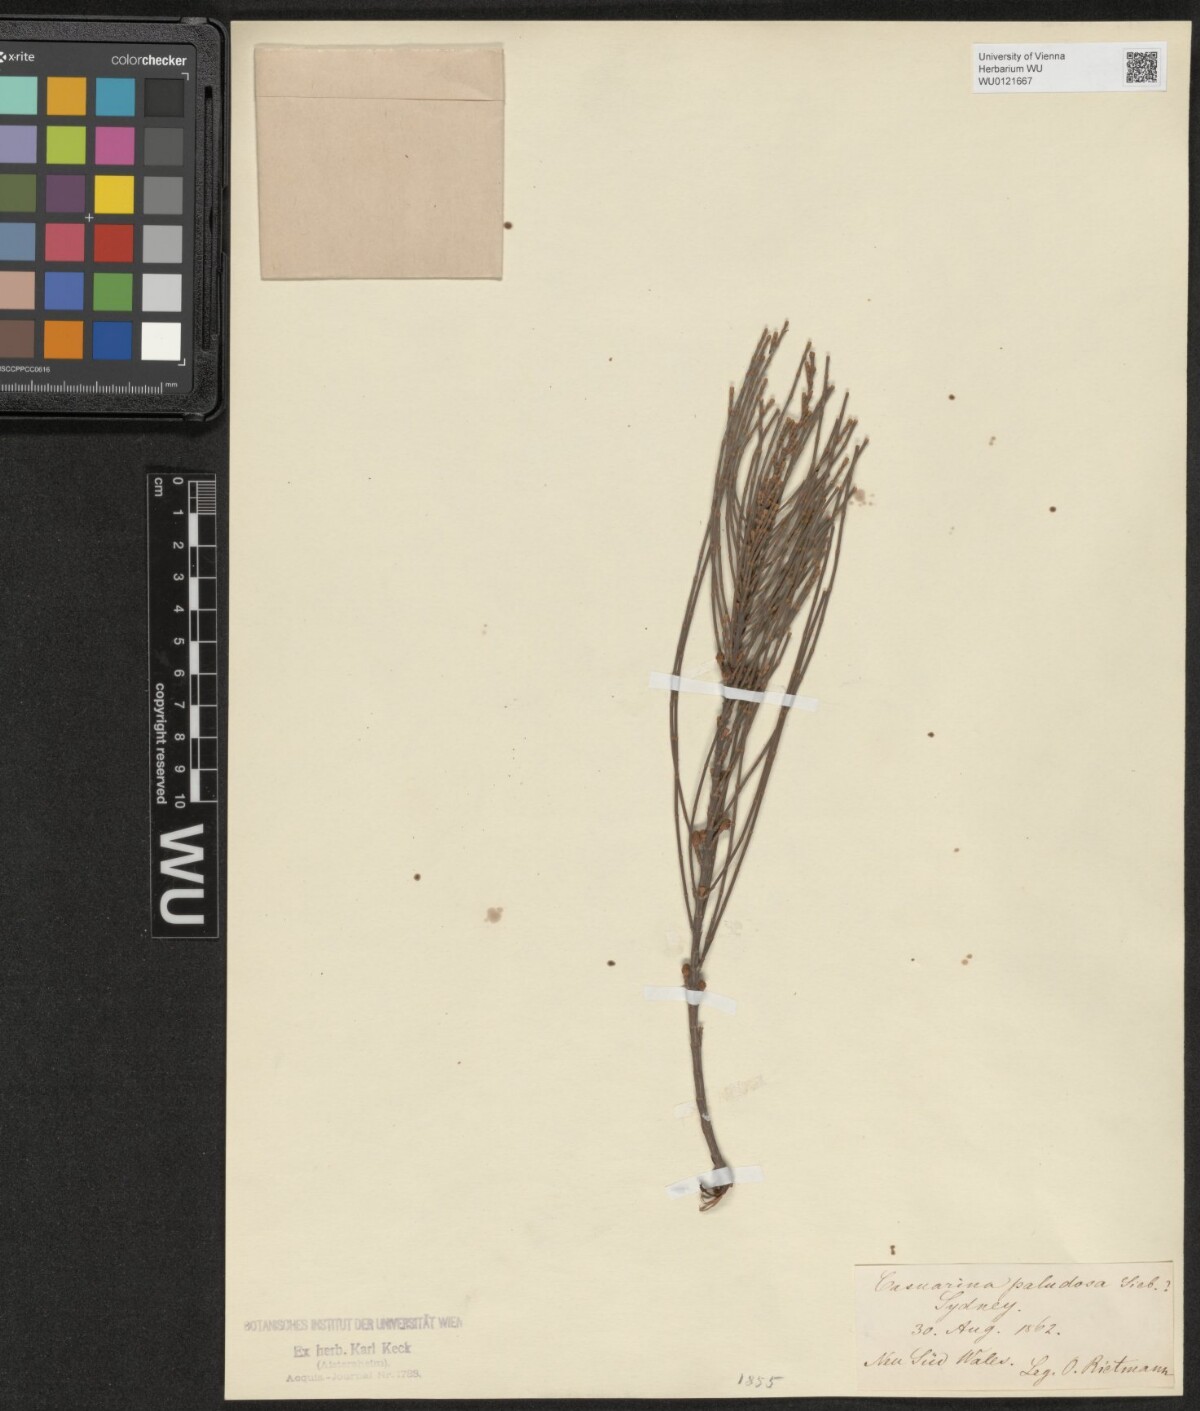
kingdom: Plantae
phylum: Tracheophyta
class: Magnoliopsida
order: Fagales
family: Casuarinaceae
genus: Allocasuarina
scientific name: Allocasuarina paludosa
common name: Scrub she-oak
